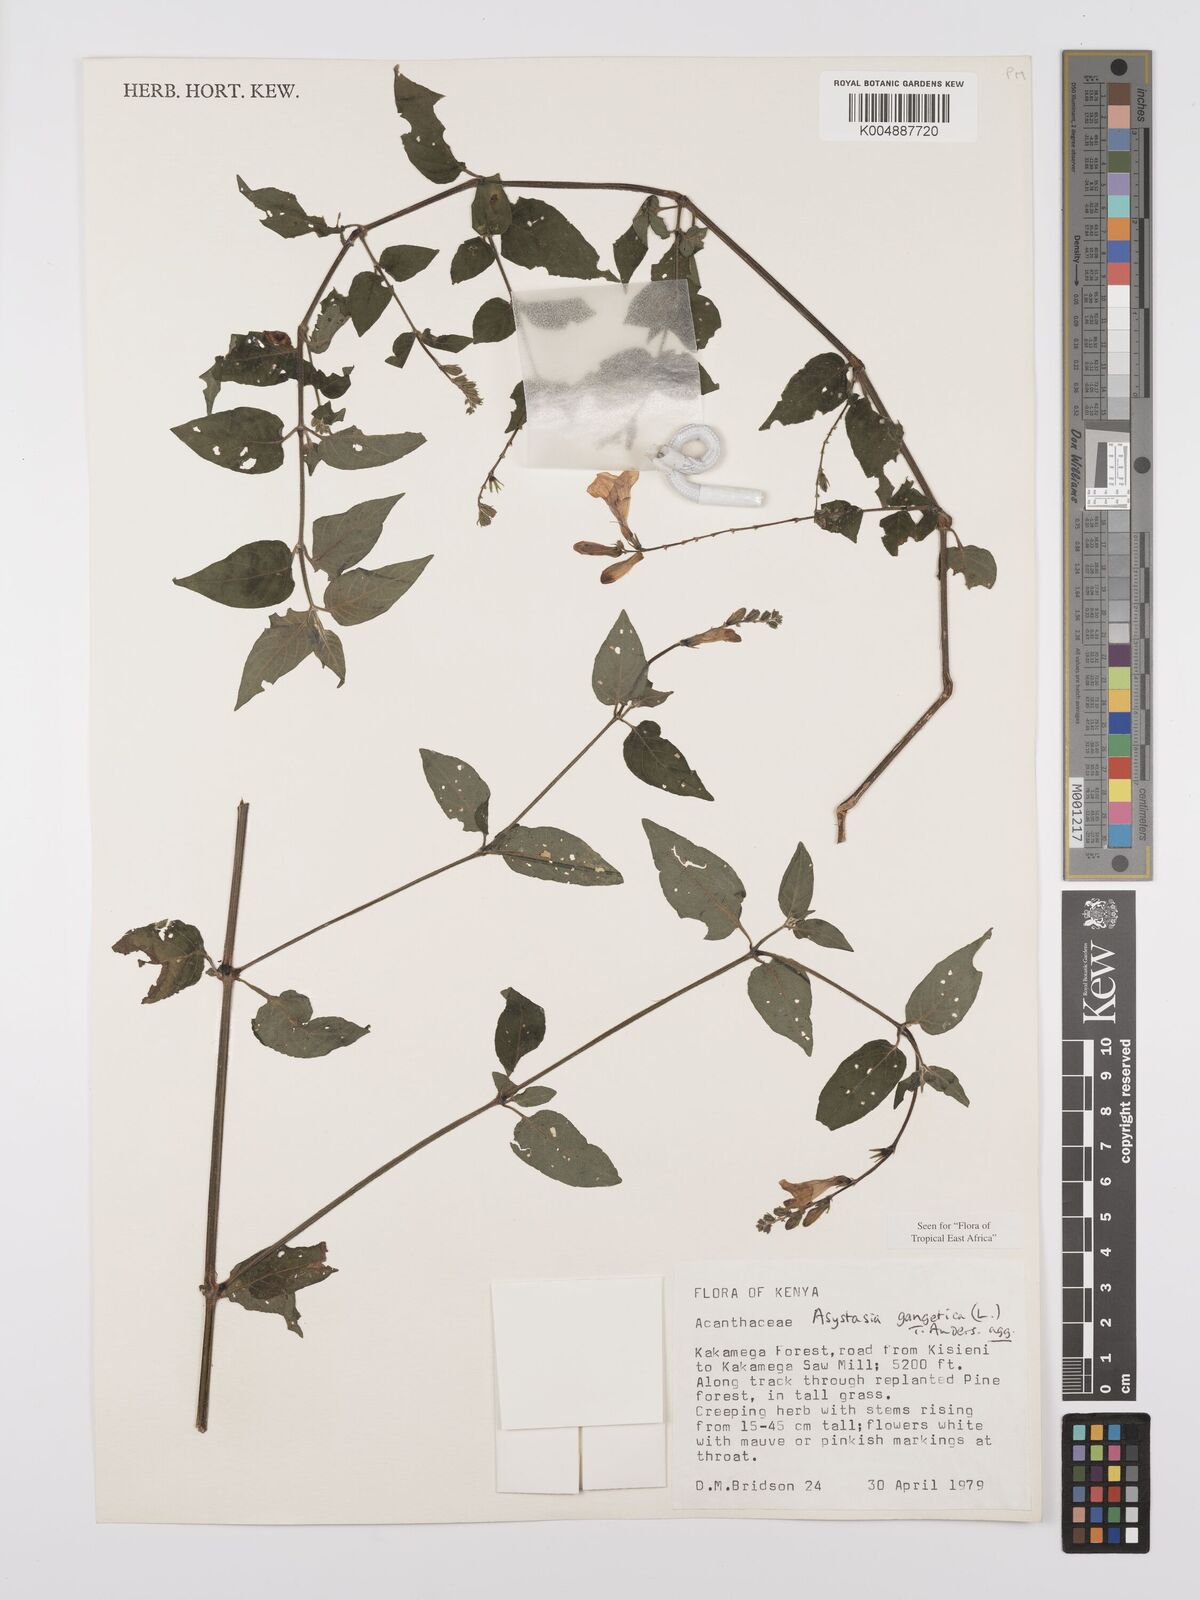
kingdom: Plantae
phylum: Tracheophyta
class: Magnoliopsida
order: Lamiales
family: Acanthaceae
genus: Asystasia
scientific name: Asystasia gangetica
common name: Chinese violet
